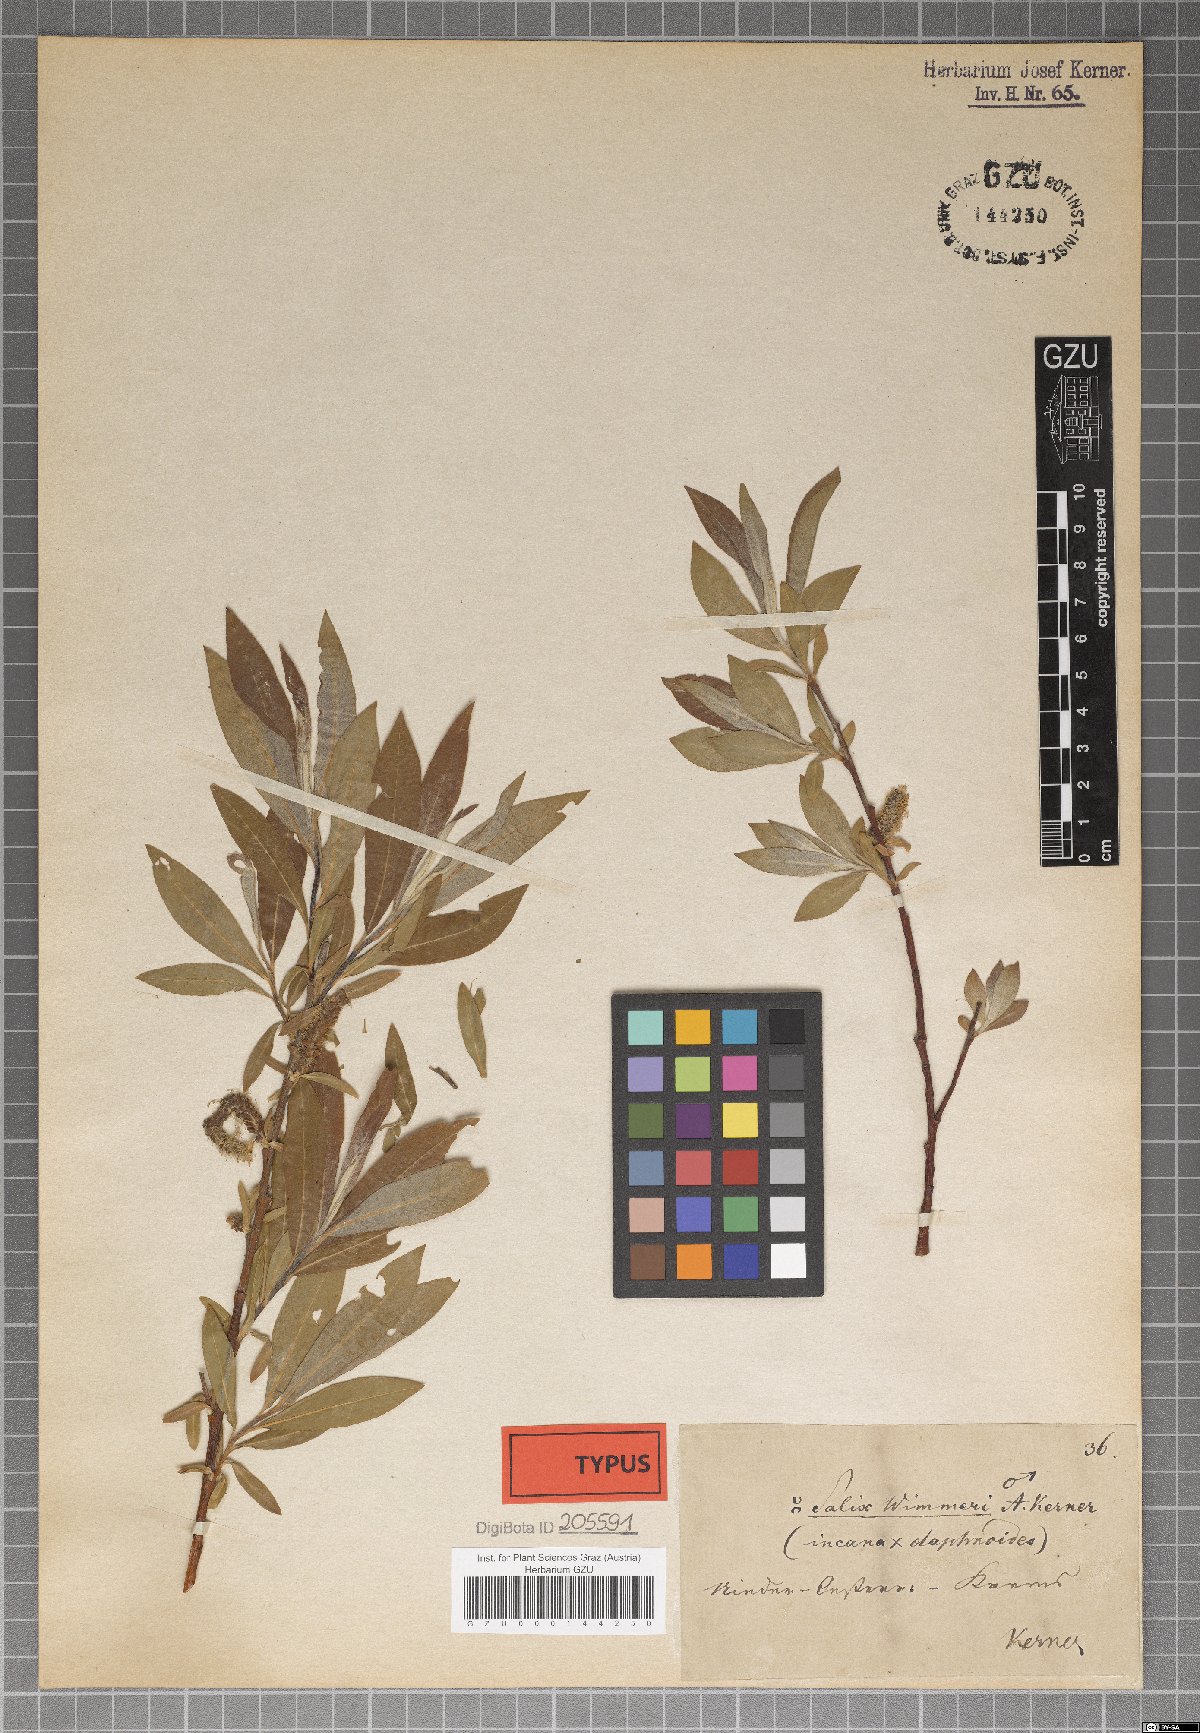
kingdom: Plantae
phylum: Tracheophyta
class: Magnoliopsida
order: Malpighiales
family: Salicaceae
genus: Salix
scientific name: Salix reuteri
